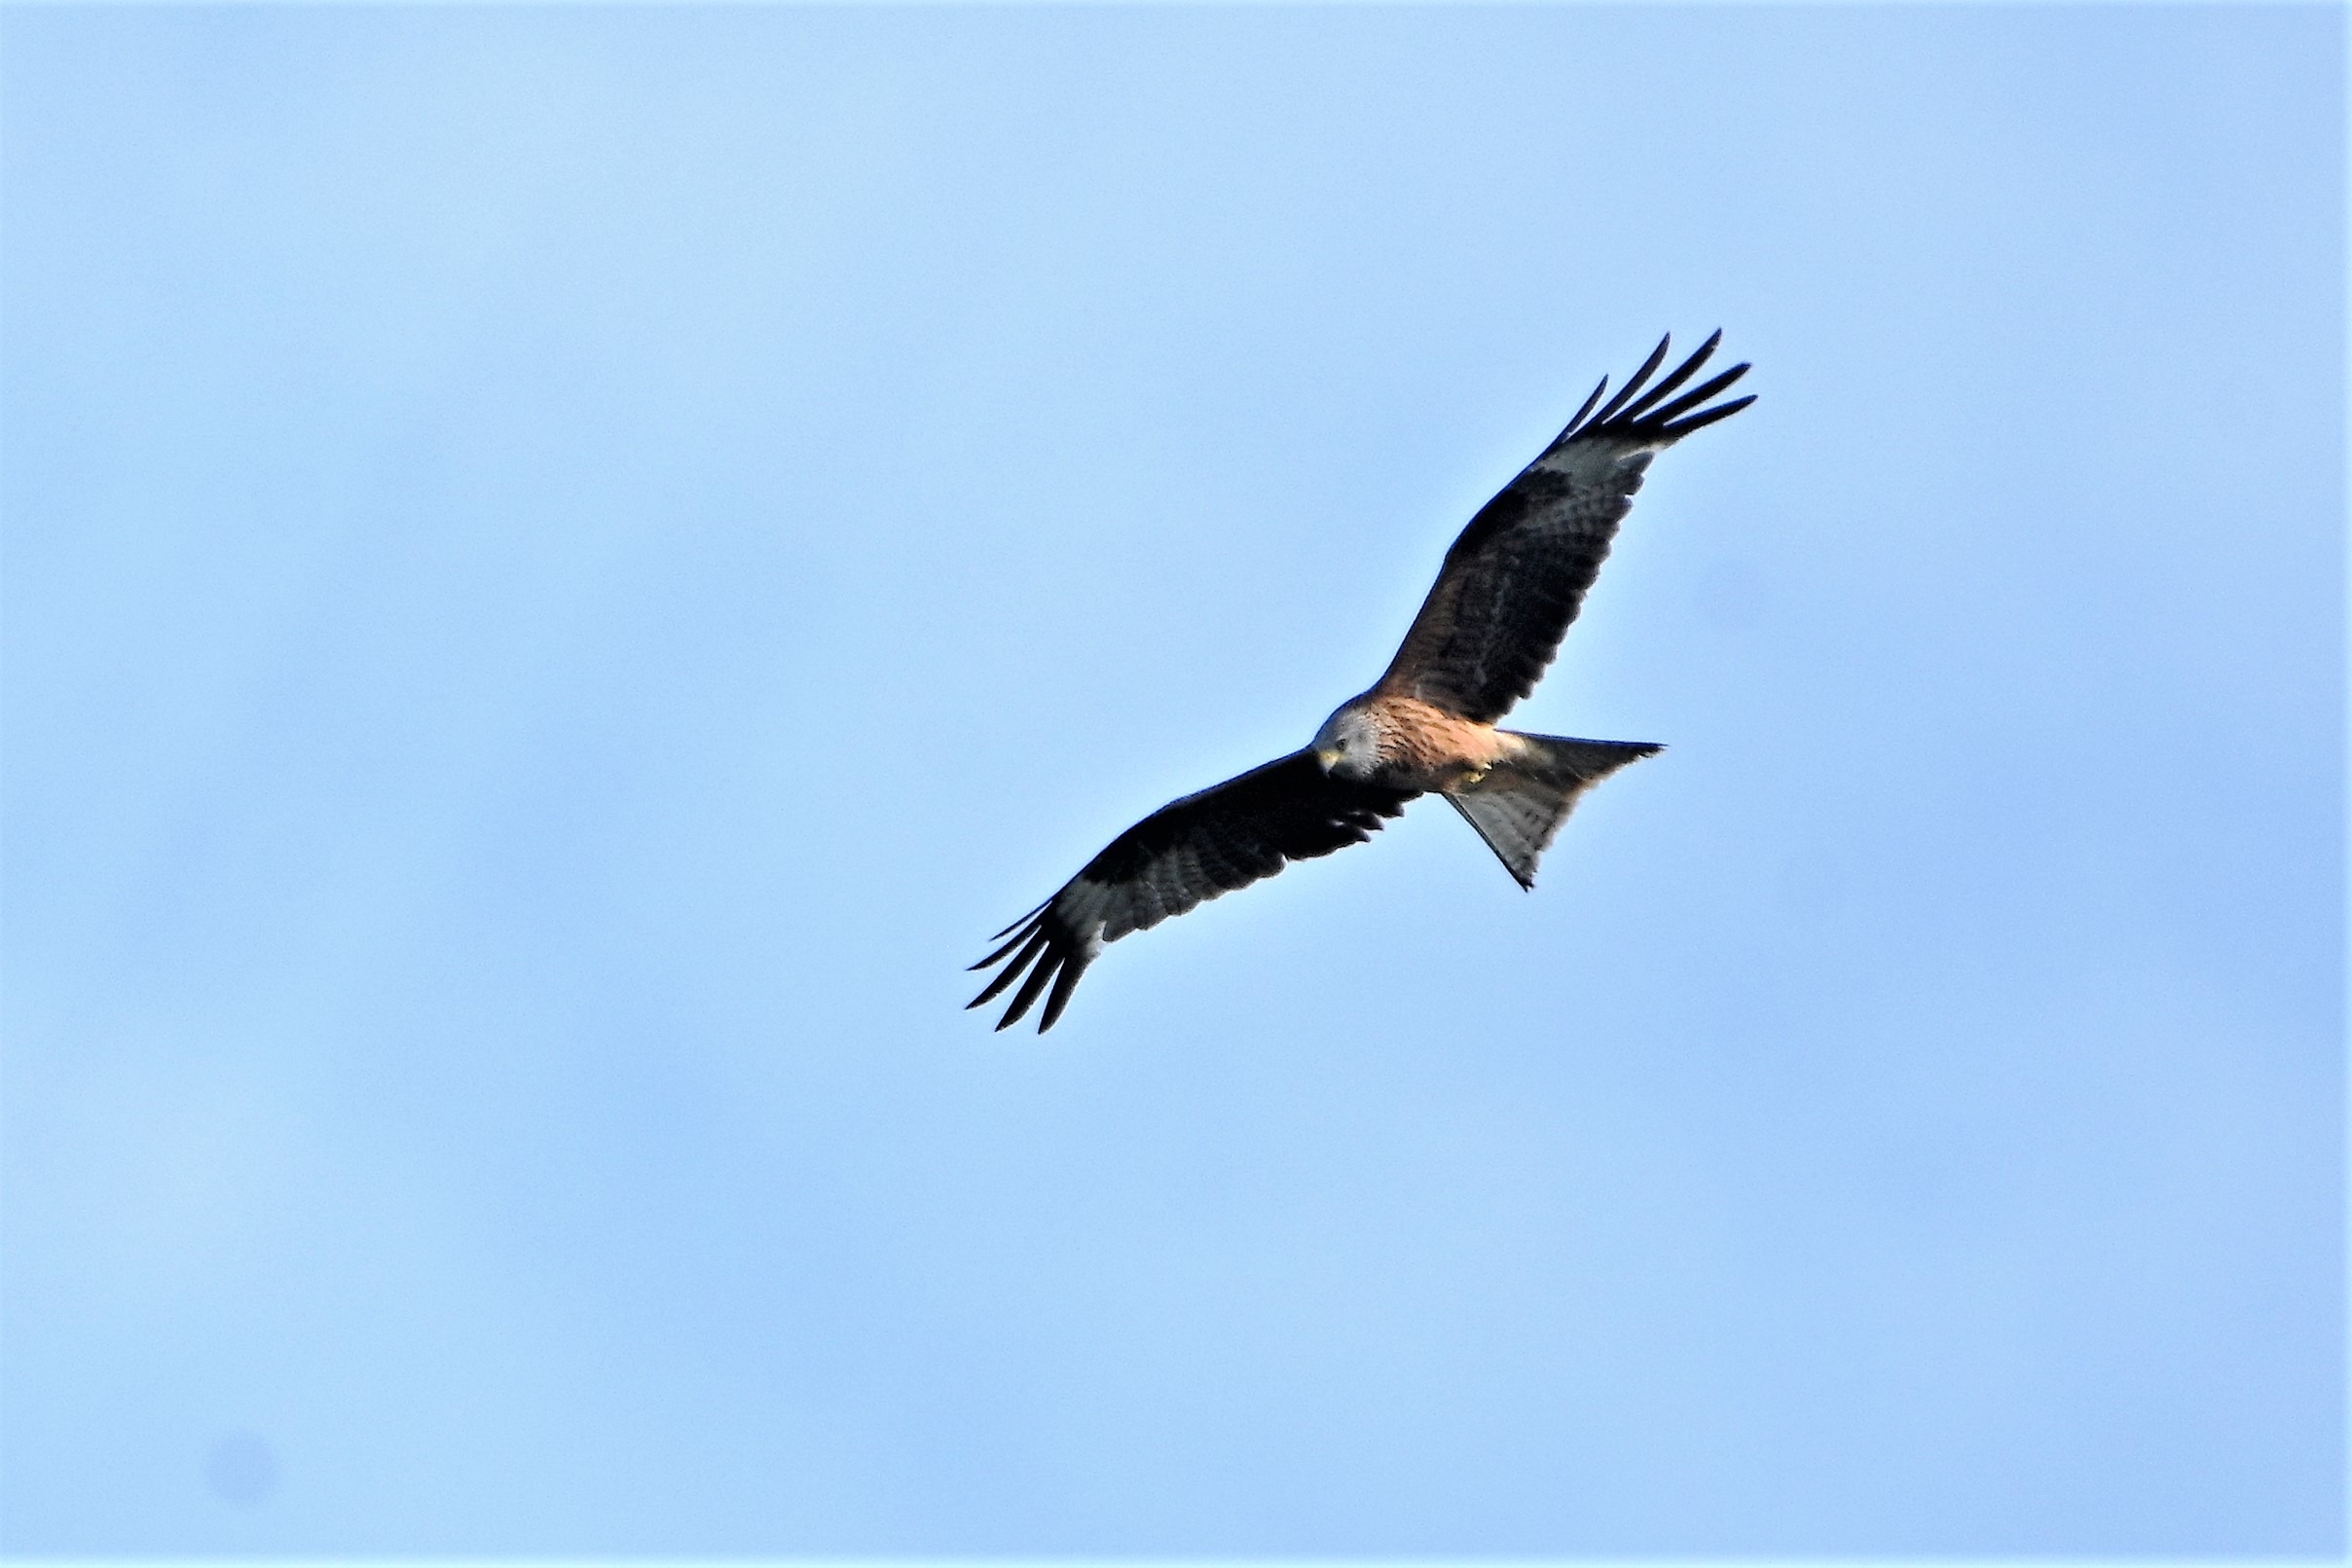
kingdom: Animalia
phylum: Chordata
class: Aves
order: Accipitriformes
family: Accipitridae
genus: Milvus
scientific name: Milvus milvus
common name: Rød glente
